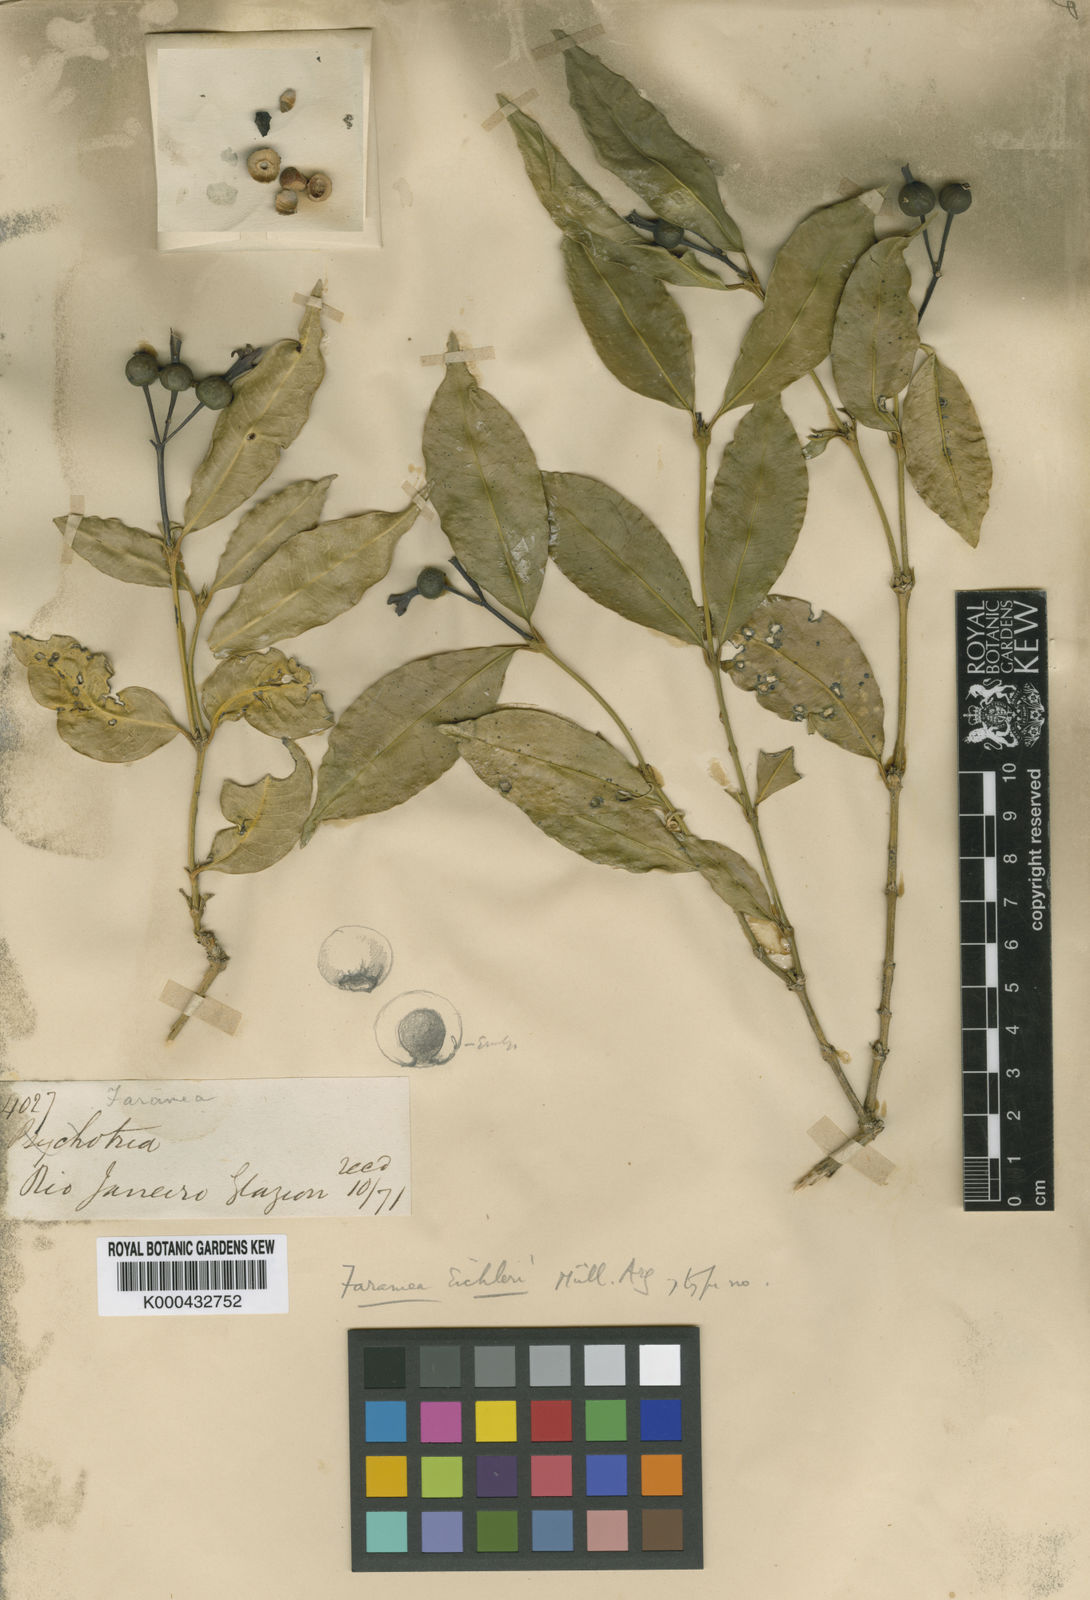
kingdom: Plantae
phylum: Tracheophyta
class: Magnoliopsida
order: Gentianales
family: Rubiaceae
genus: Faramea
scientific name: Faramea
